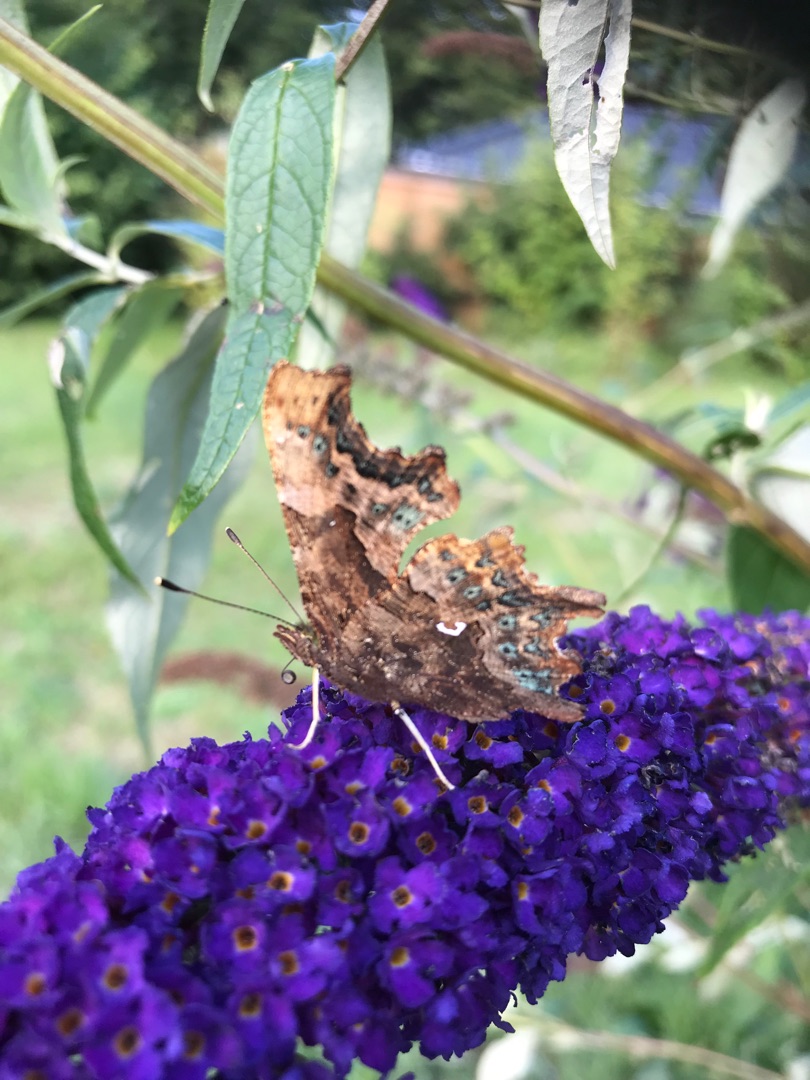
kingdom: Animalia
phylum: Arthropoda
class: Insecta
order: Lepidoptera
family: Nymphalidae
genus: Polygonia
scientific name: Polygonia c-album
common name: Det hvide C
